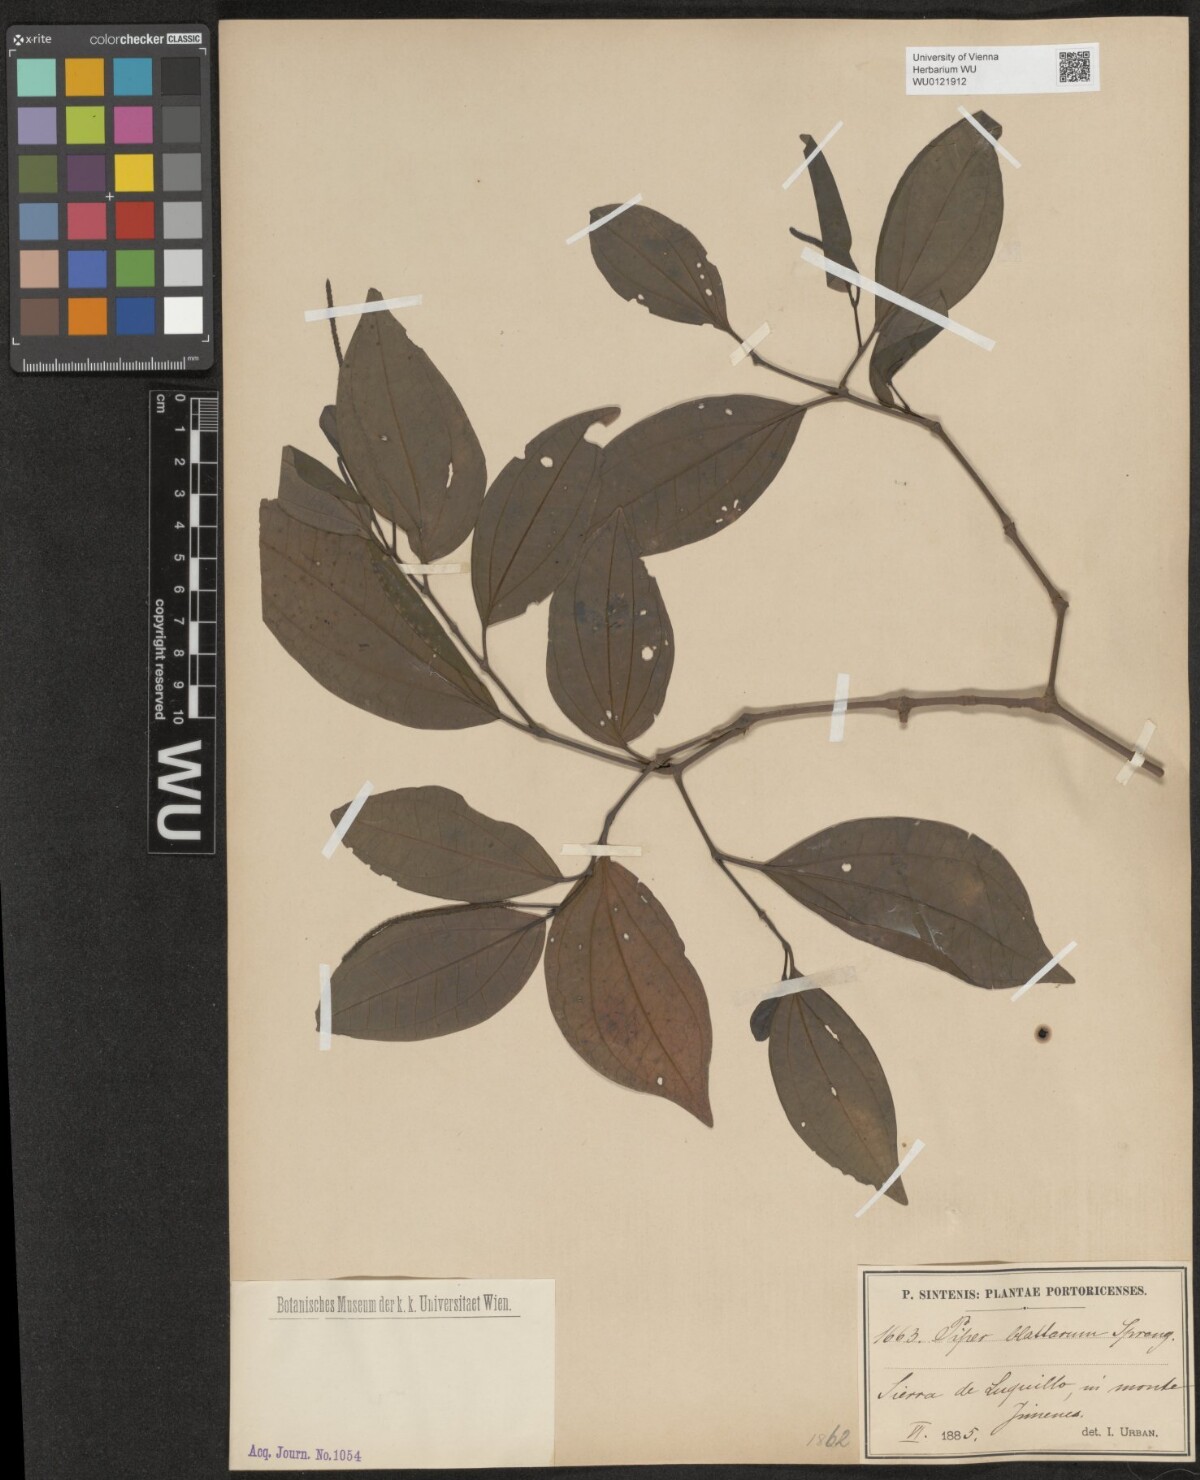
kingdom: Plantae
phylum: Tracheophyta
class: Magnoliopsida
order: Piperales
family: Piperaceae
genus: Piper
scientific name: Piper blattarum
